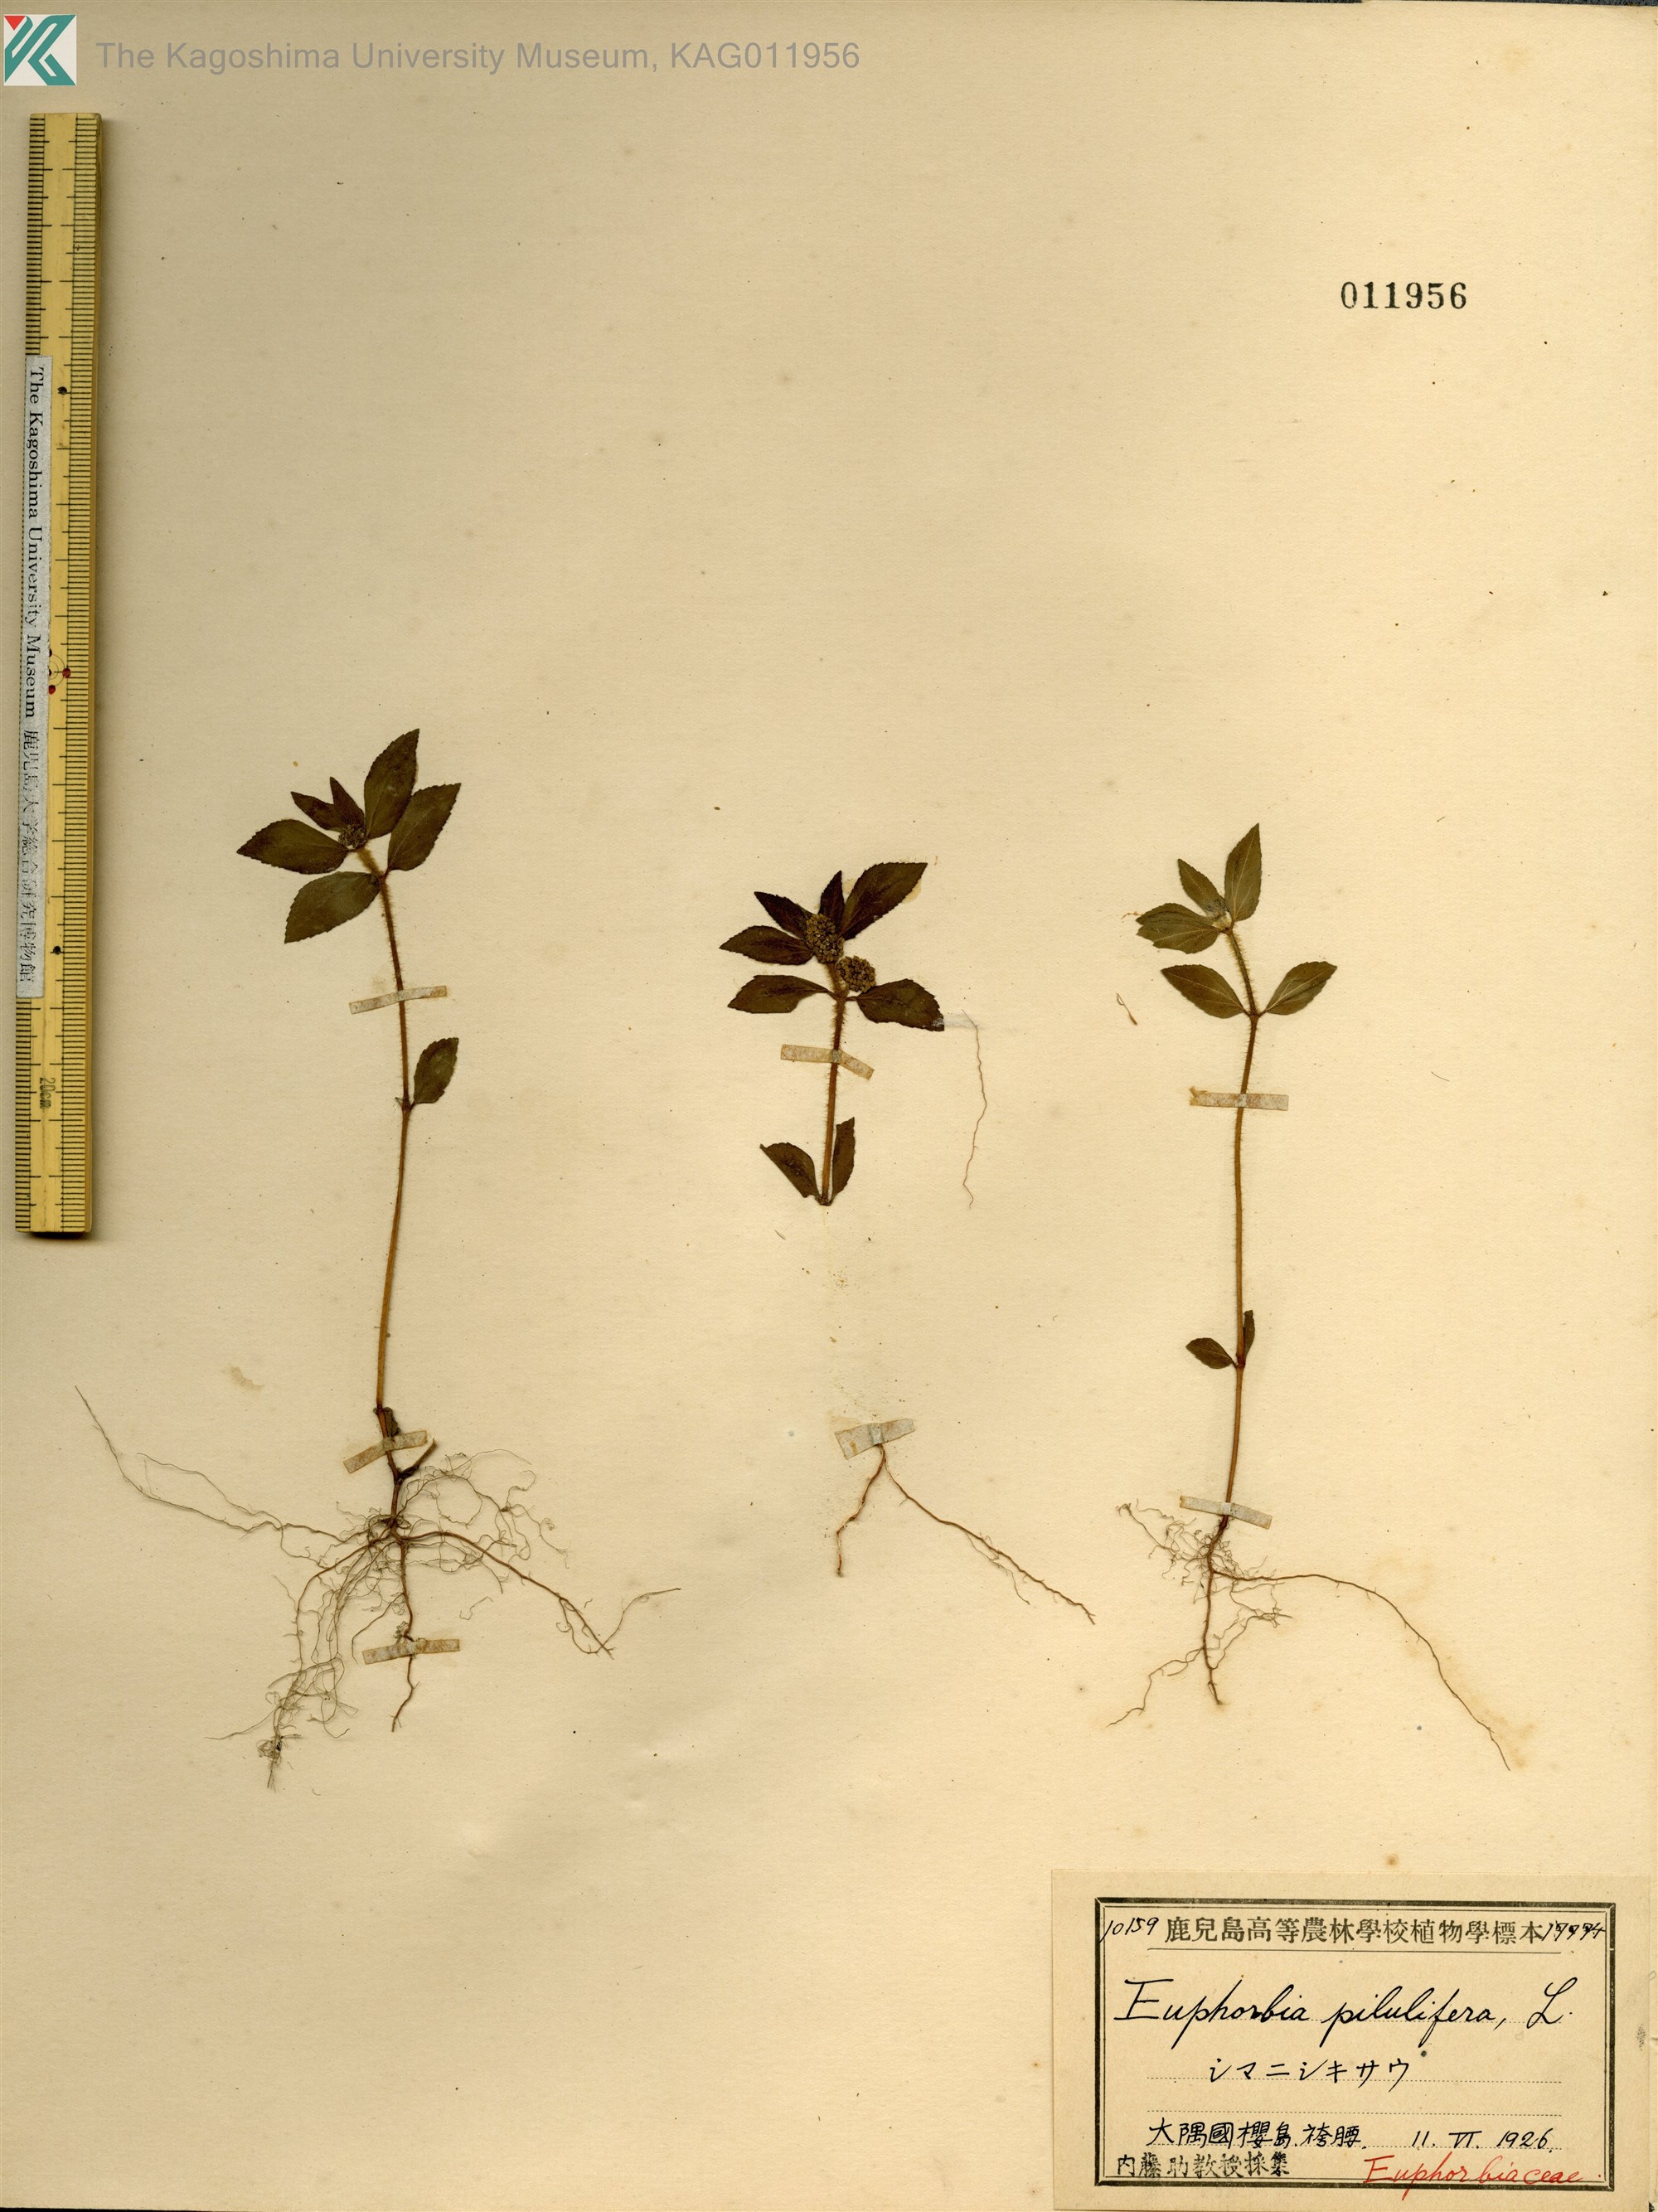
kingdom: Plantae
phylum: Tracheophyta
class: Magnoliopsida
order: Malpighiales
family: Euphorbiaceae
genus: Euphorbia
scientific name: Euphorbia hirta
